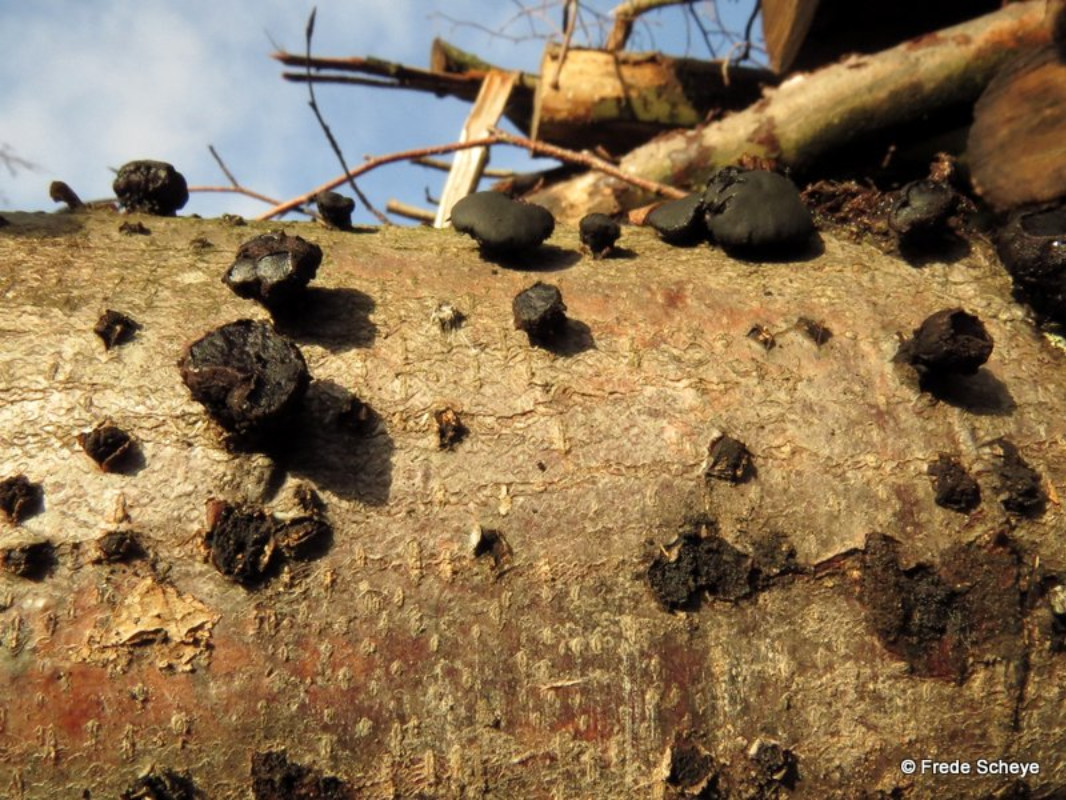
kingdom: Fungi
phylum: Ascomycota
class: Leotiomycetes
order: Phacidiales
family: Phacidiaceae
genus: Bulgaria
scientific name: Bulgaria inquinans
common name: afsmittende topsvamp
